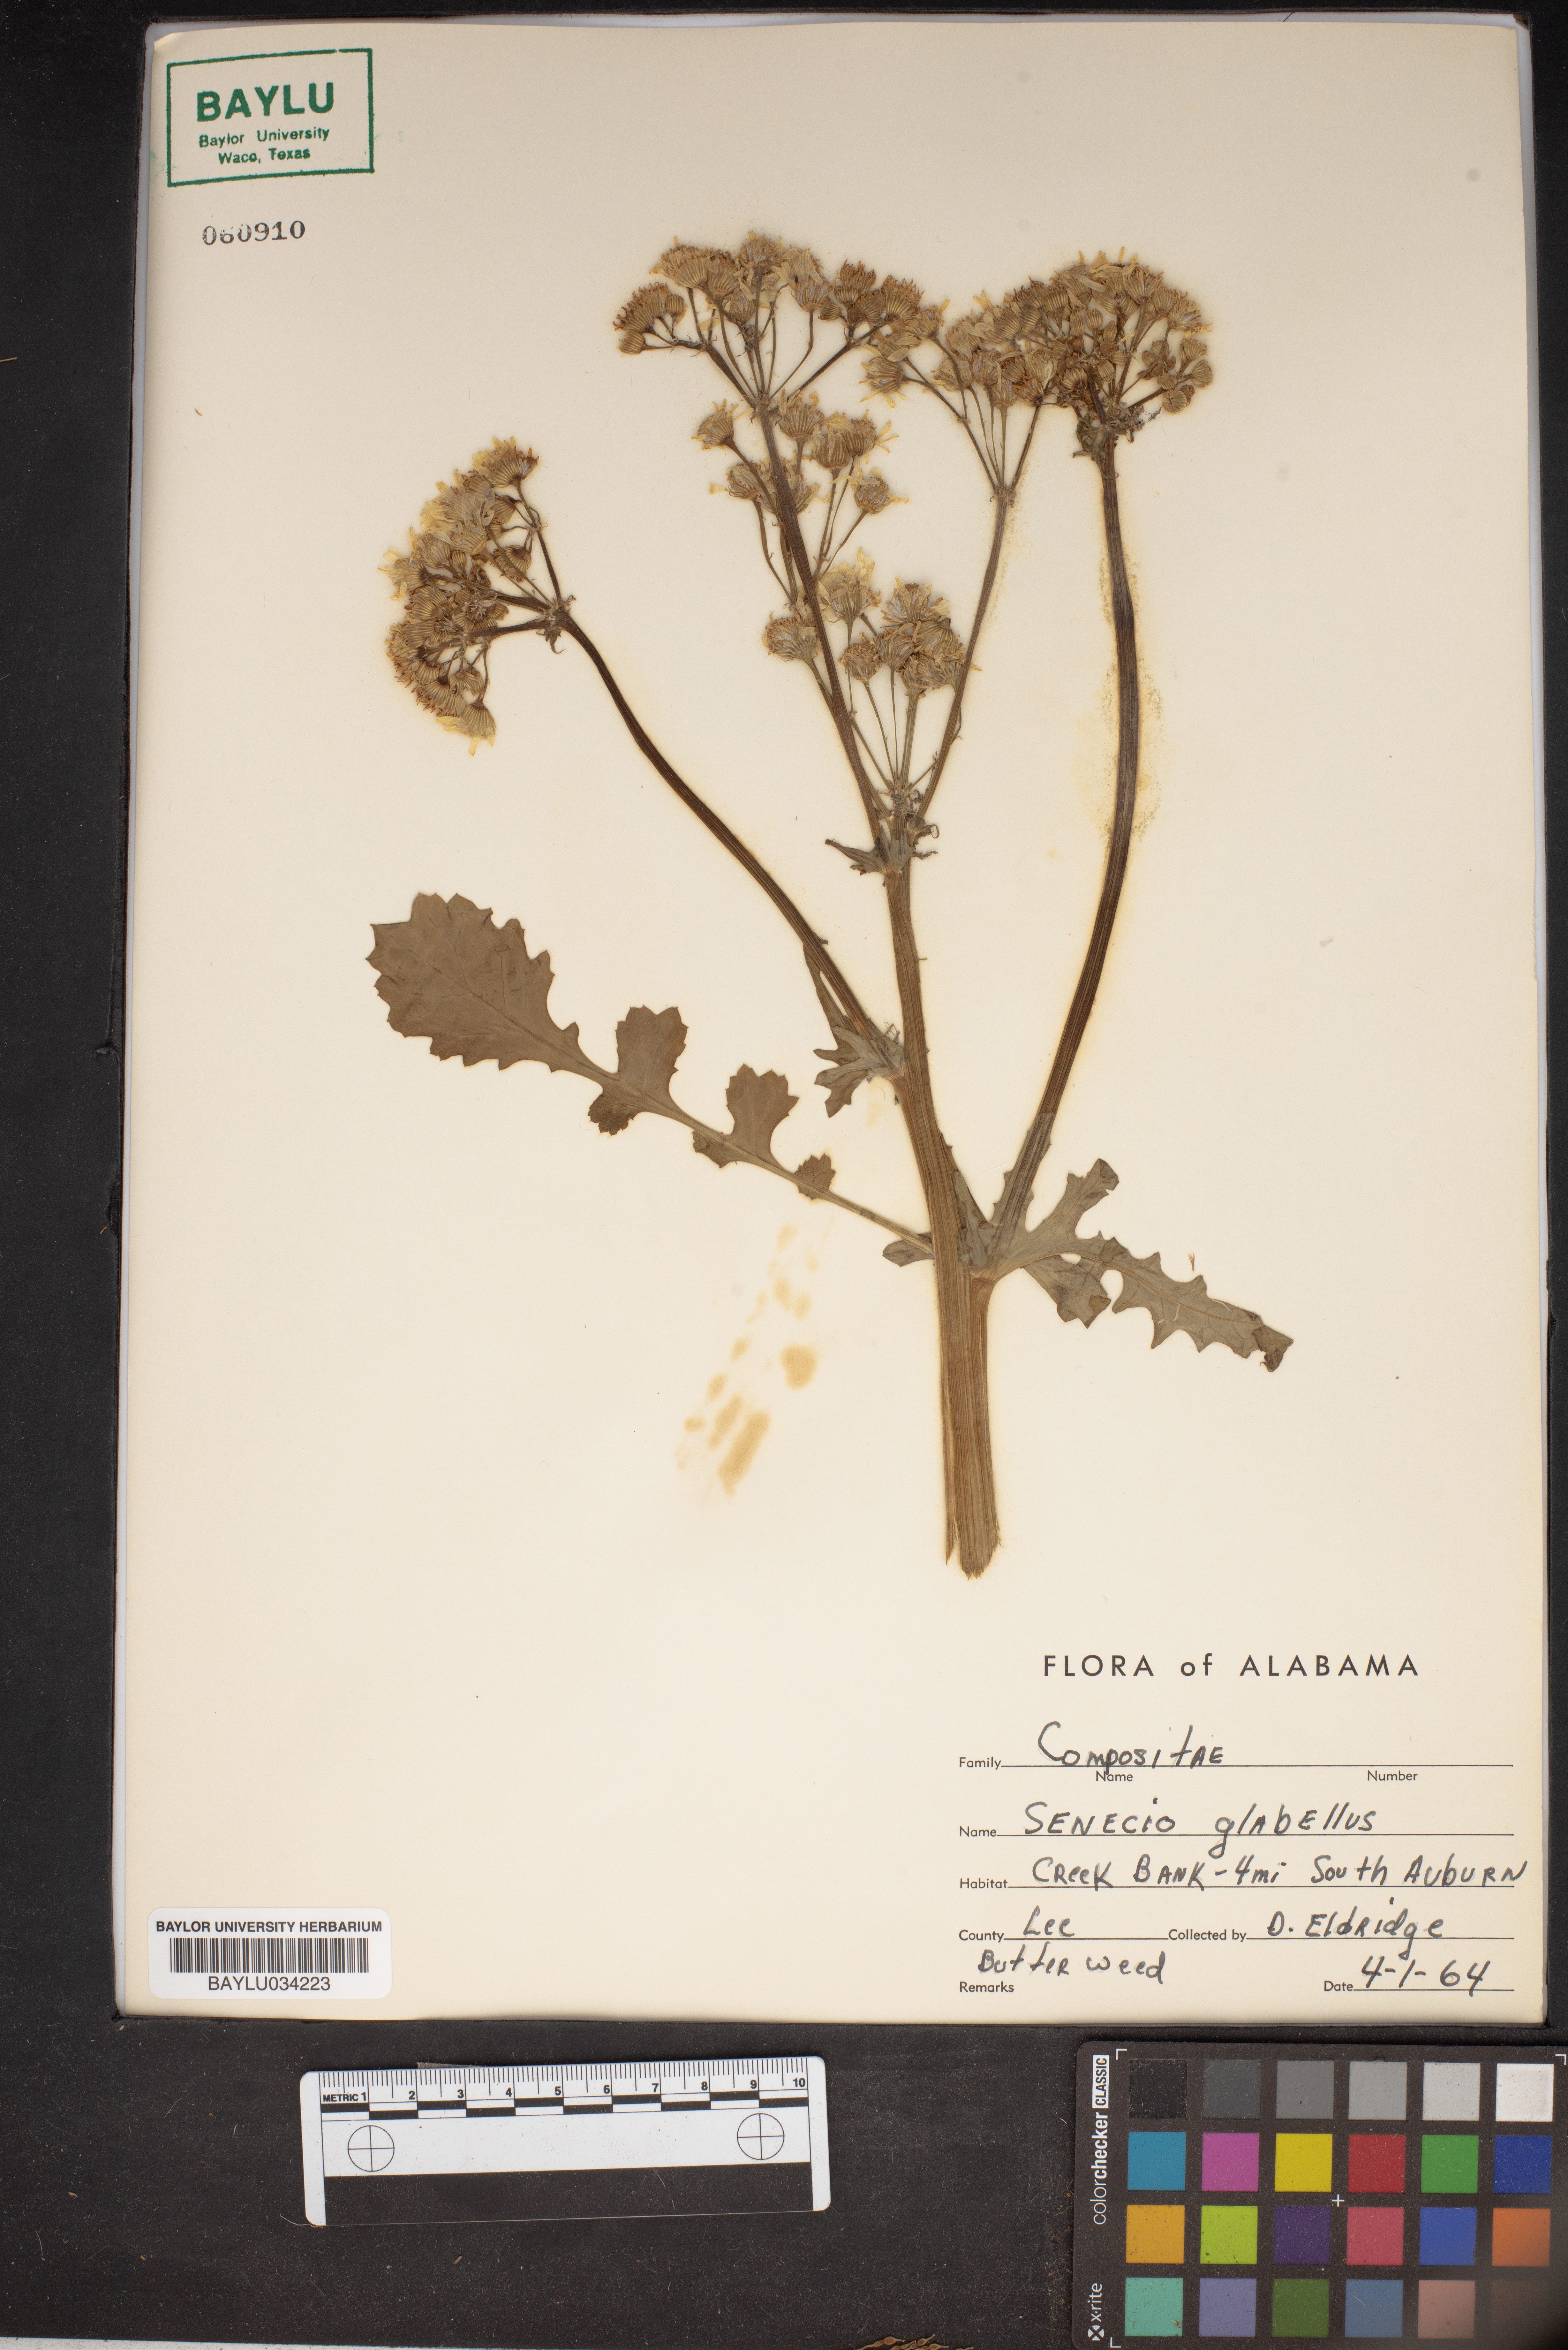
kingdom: Plantae
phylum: Tracheophyta
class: Magnoliopsida
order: Asterales
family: Asteraceae
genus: Tephroseris
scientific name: Tephroseris praticola
